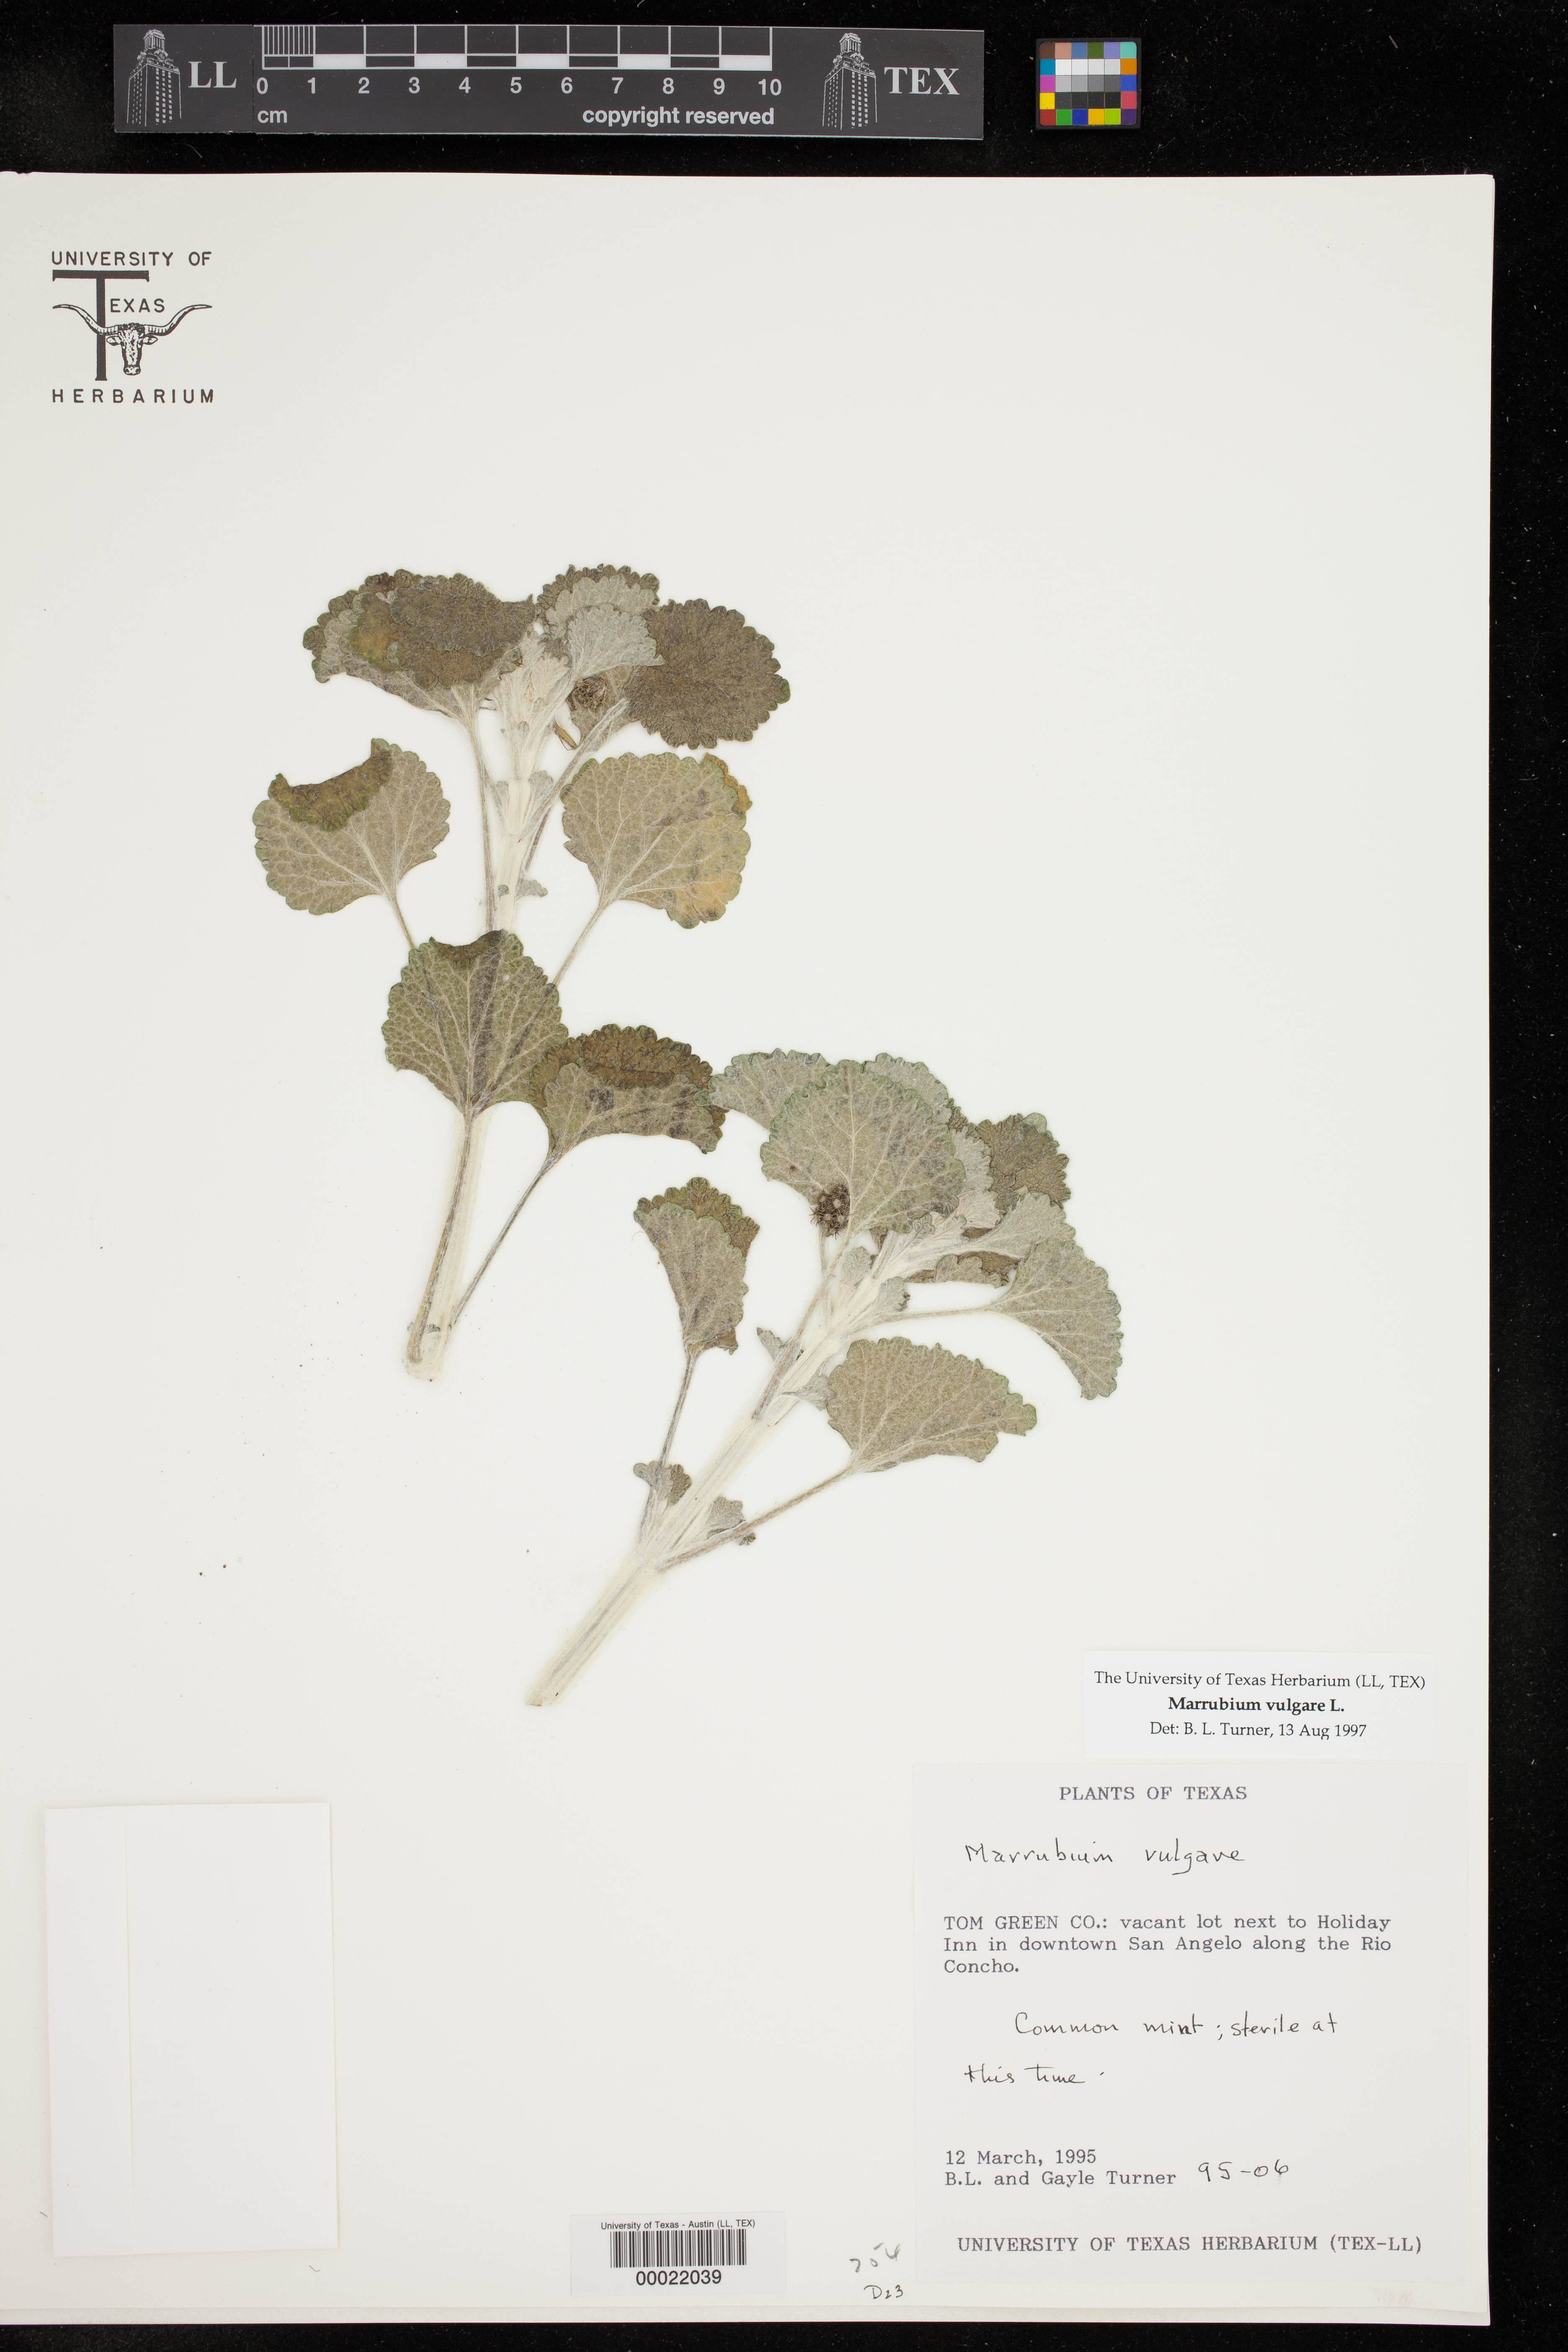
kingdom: Plantae
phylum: Tracheophyta
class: Magnoliopsida
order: Lamiales
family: Lamiaceae
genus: Marrubium
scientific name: Marrubium vulgare
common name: Horehound
